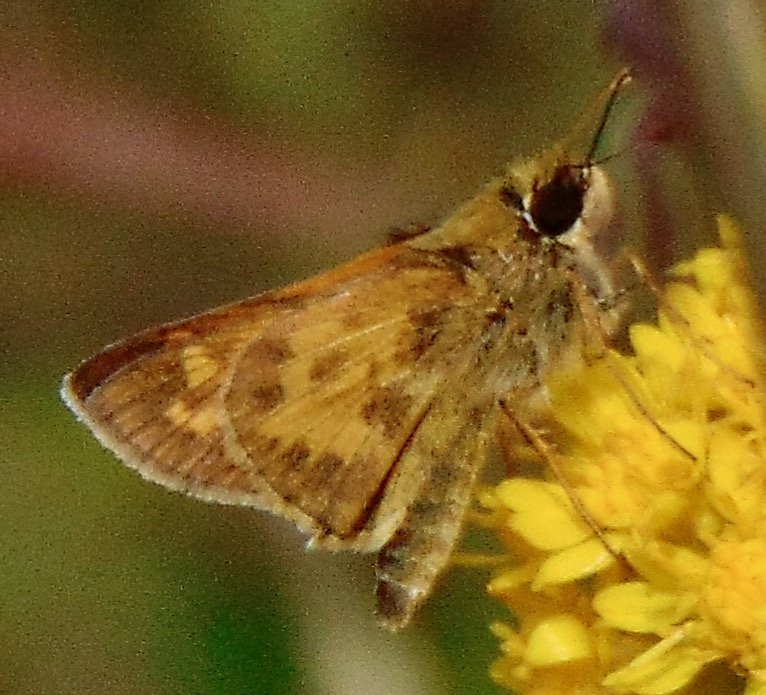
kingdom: Animalia
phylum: Arthropoda
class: Insecta
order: Lepidoptera
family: Hesperiidae
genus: Atalopedes
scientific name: Atalopedes campestris
